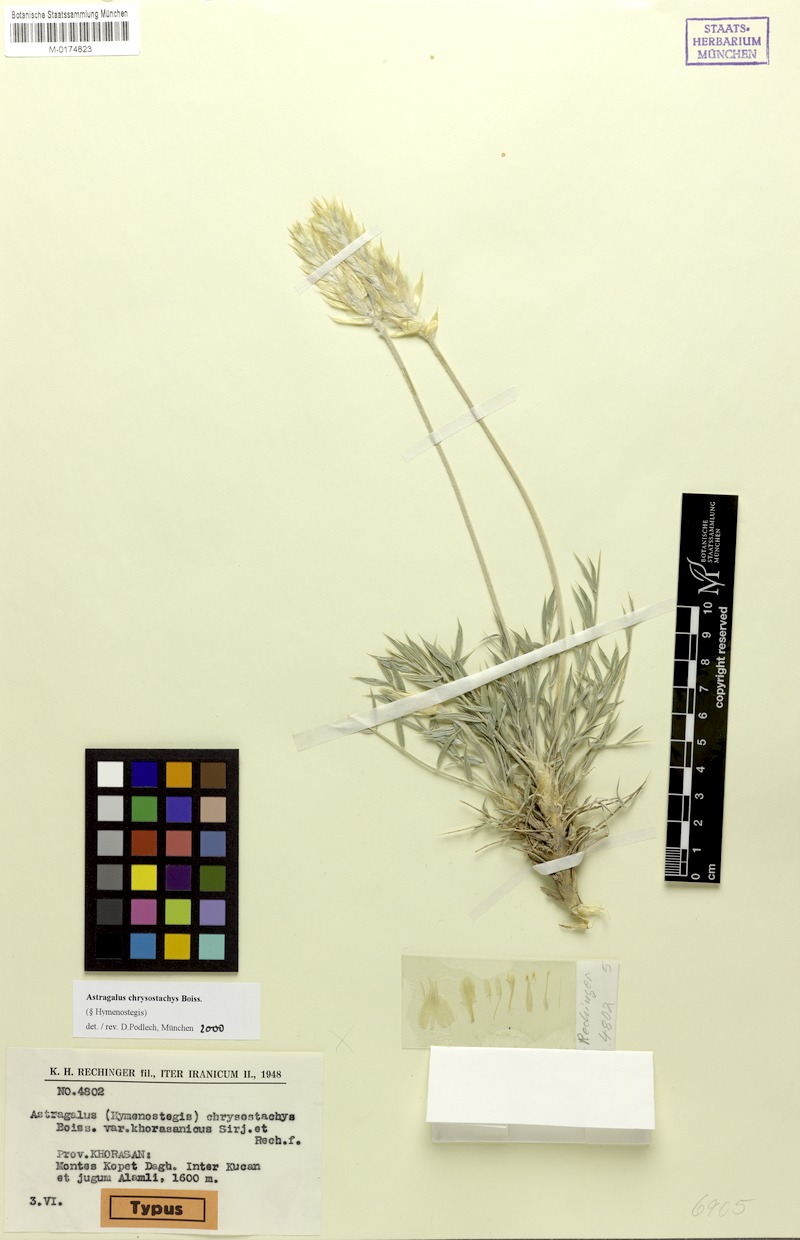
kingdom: Plantae
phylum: Tracheophyta
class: Magnoliopsida
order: Fabales
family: Fabaceae
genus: Astragalus
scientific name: Astragalus chrysostachys
